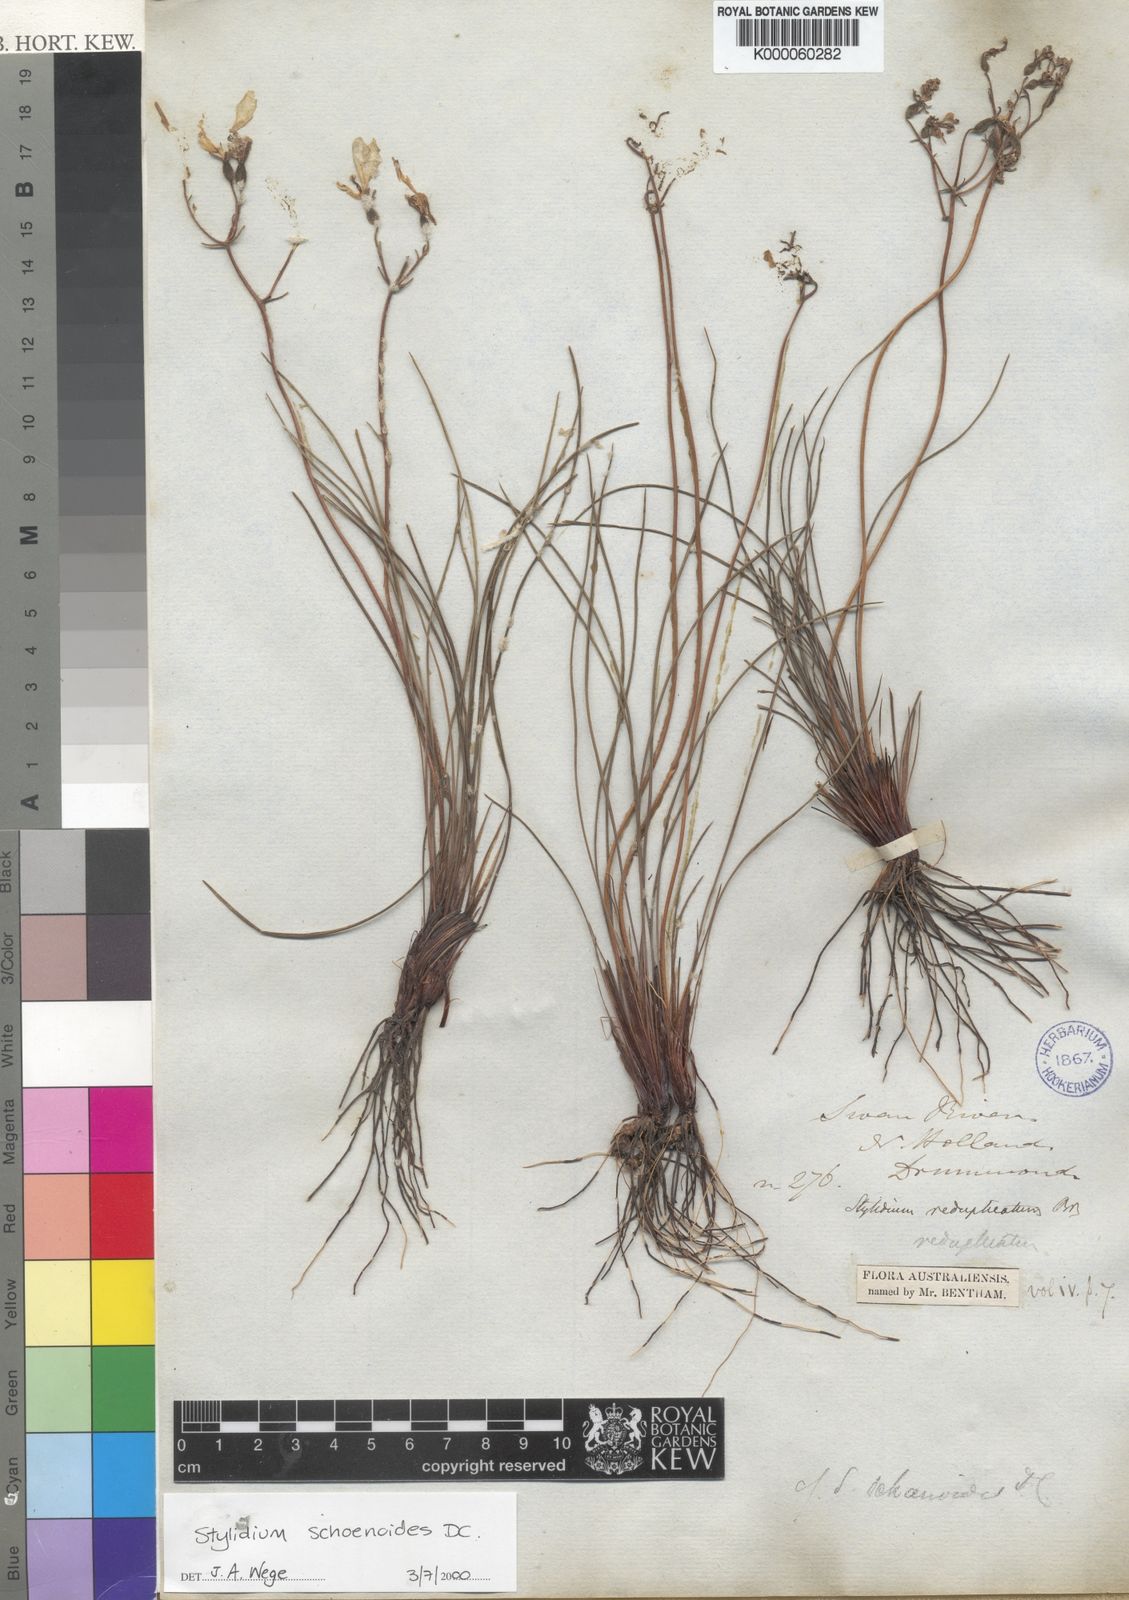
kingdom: Plantae
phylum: Tracheophyta
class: Magnoliopsida
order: Asterales
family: Stylidiaceae
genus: Stylidium
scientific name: Stylidium schoenoides
